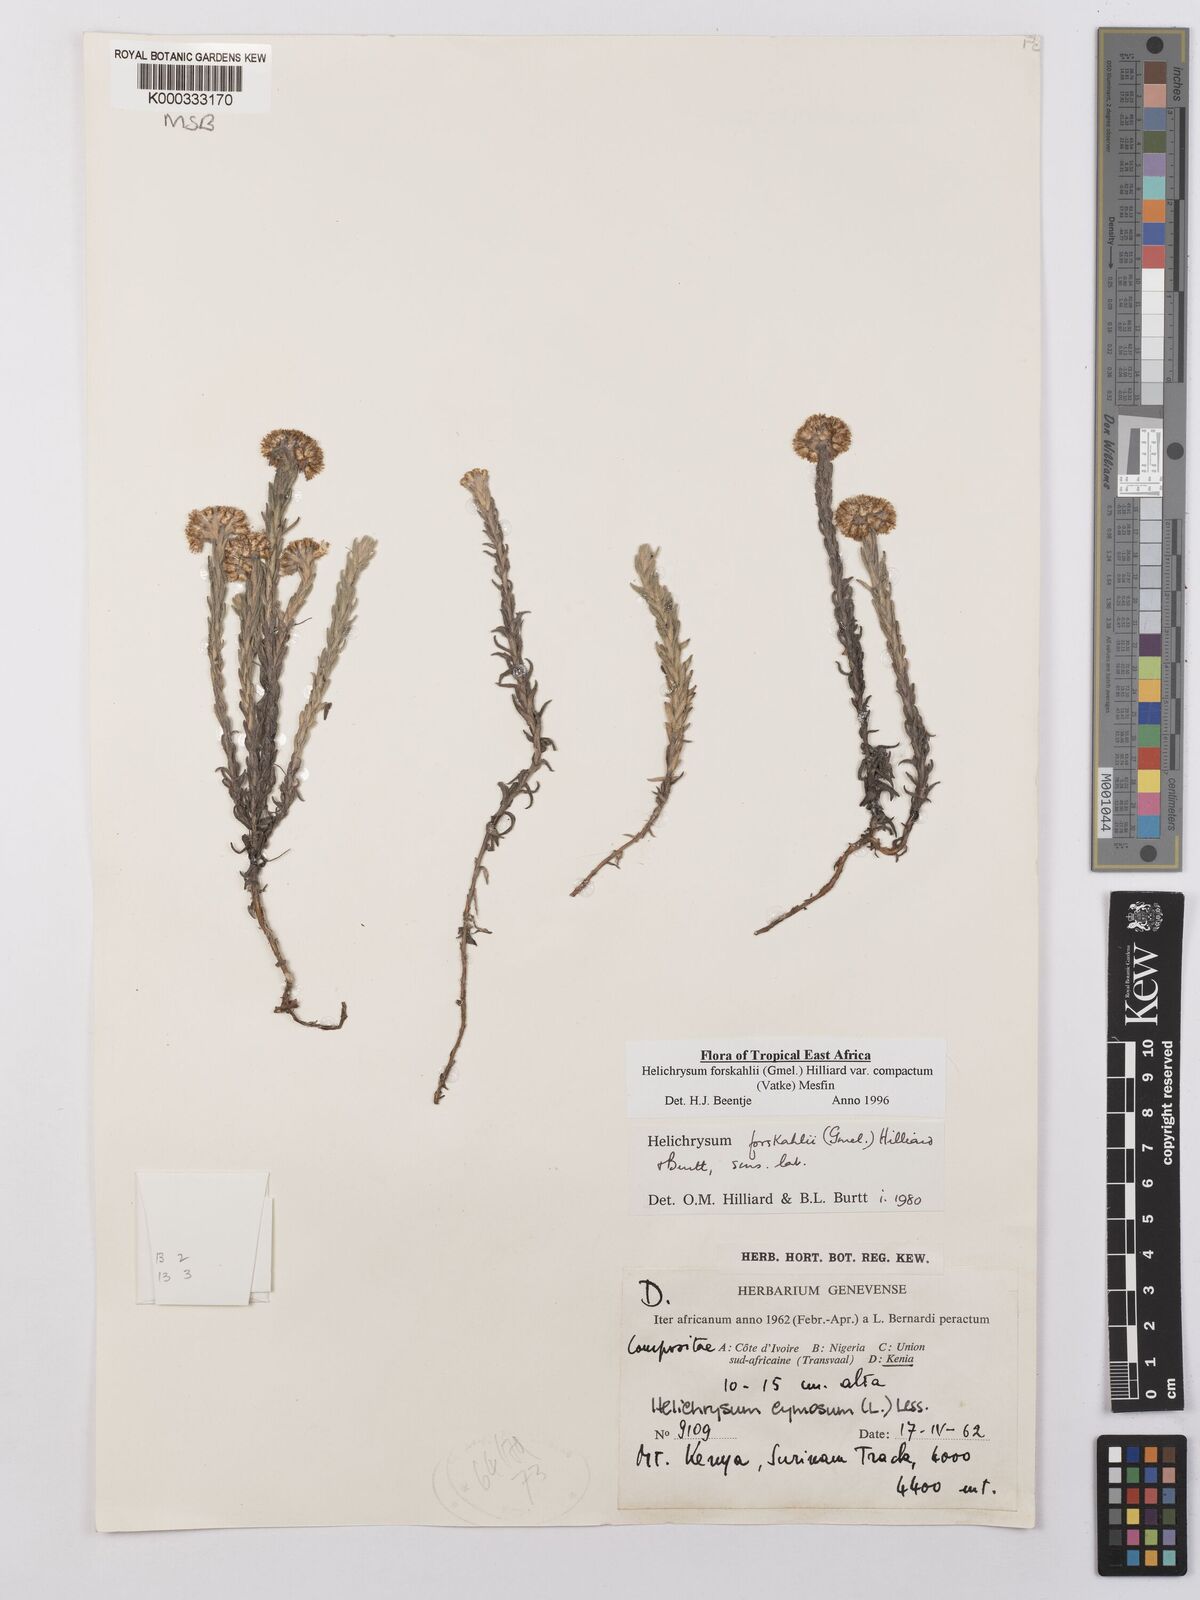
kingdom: Plantae
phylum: Tracheophyta
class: Magnoliopsida
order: Asterales
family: Asteraceae
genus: Helichrysum
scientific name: Helichrysum forskahlii
